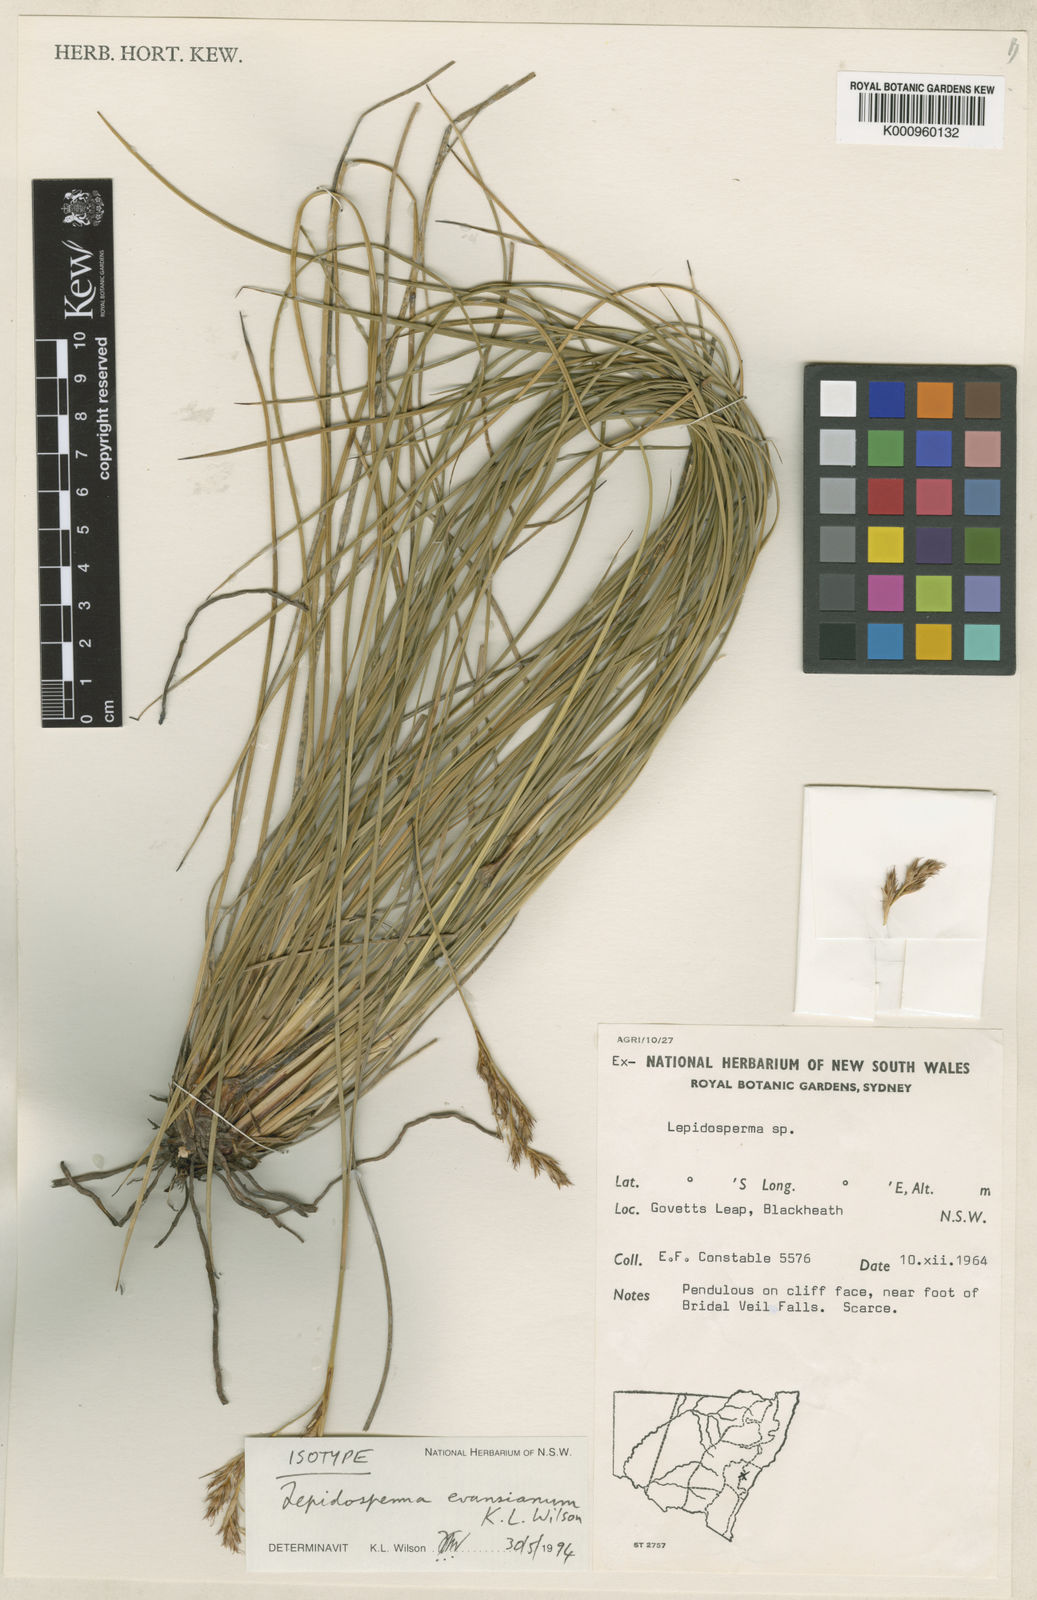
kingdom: Plantae
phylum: Tracheophyta
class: Liliopsida
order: Poales
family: Cyperaceae
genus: Lepidosperma
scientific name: Lepidosperma evansianum
